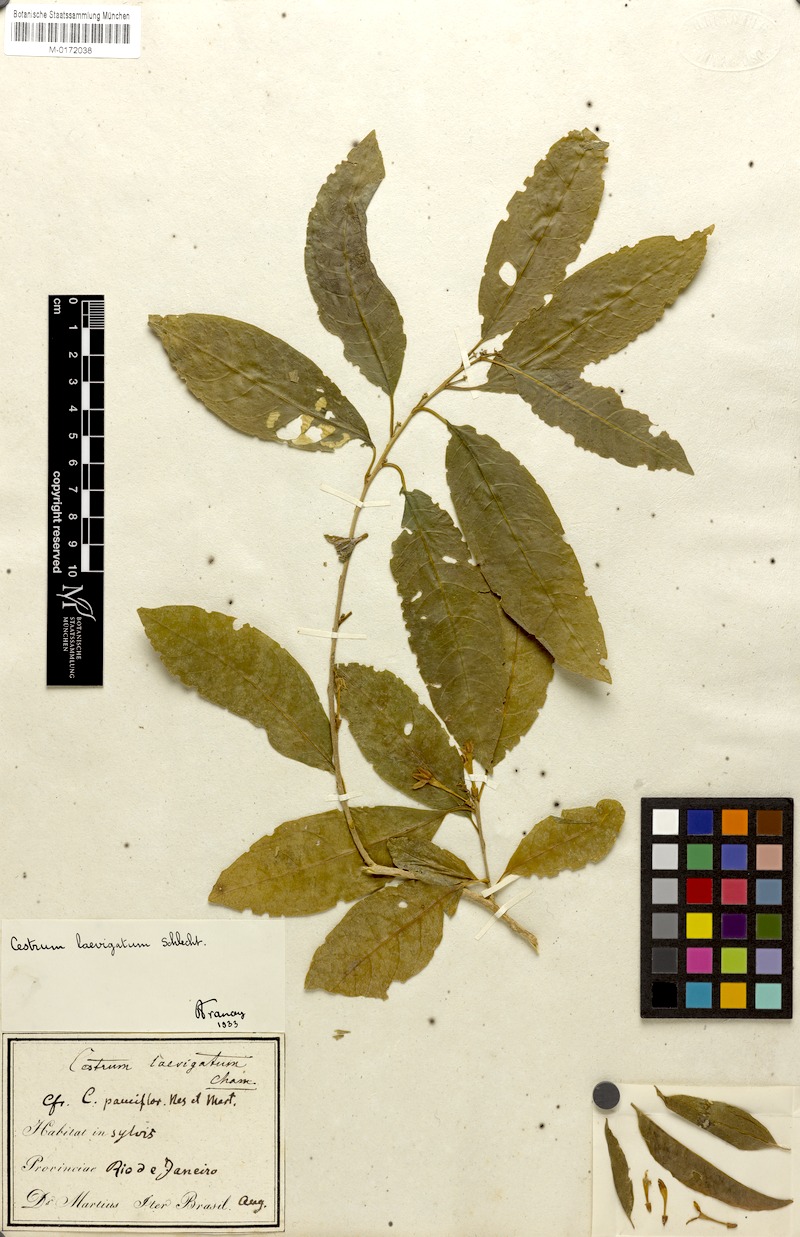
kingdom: Plantae
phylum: Tracheophyta
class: Magnoliopsida
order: Solanales
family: Solanaceae
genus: Cestrum
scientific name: Cestrum laevigatum
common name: Inkberry
